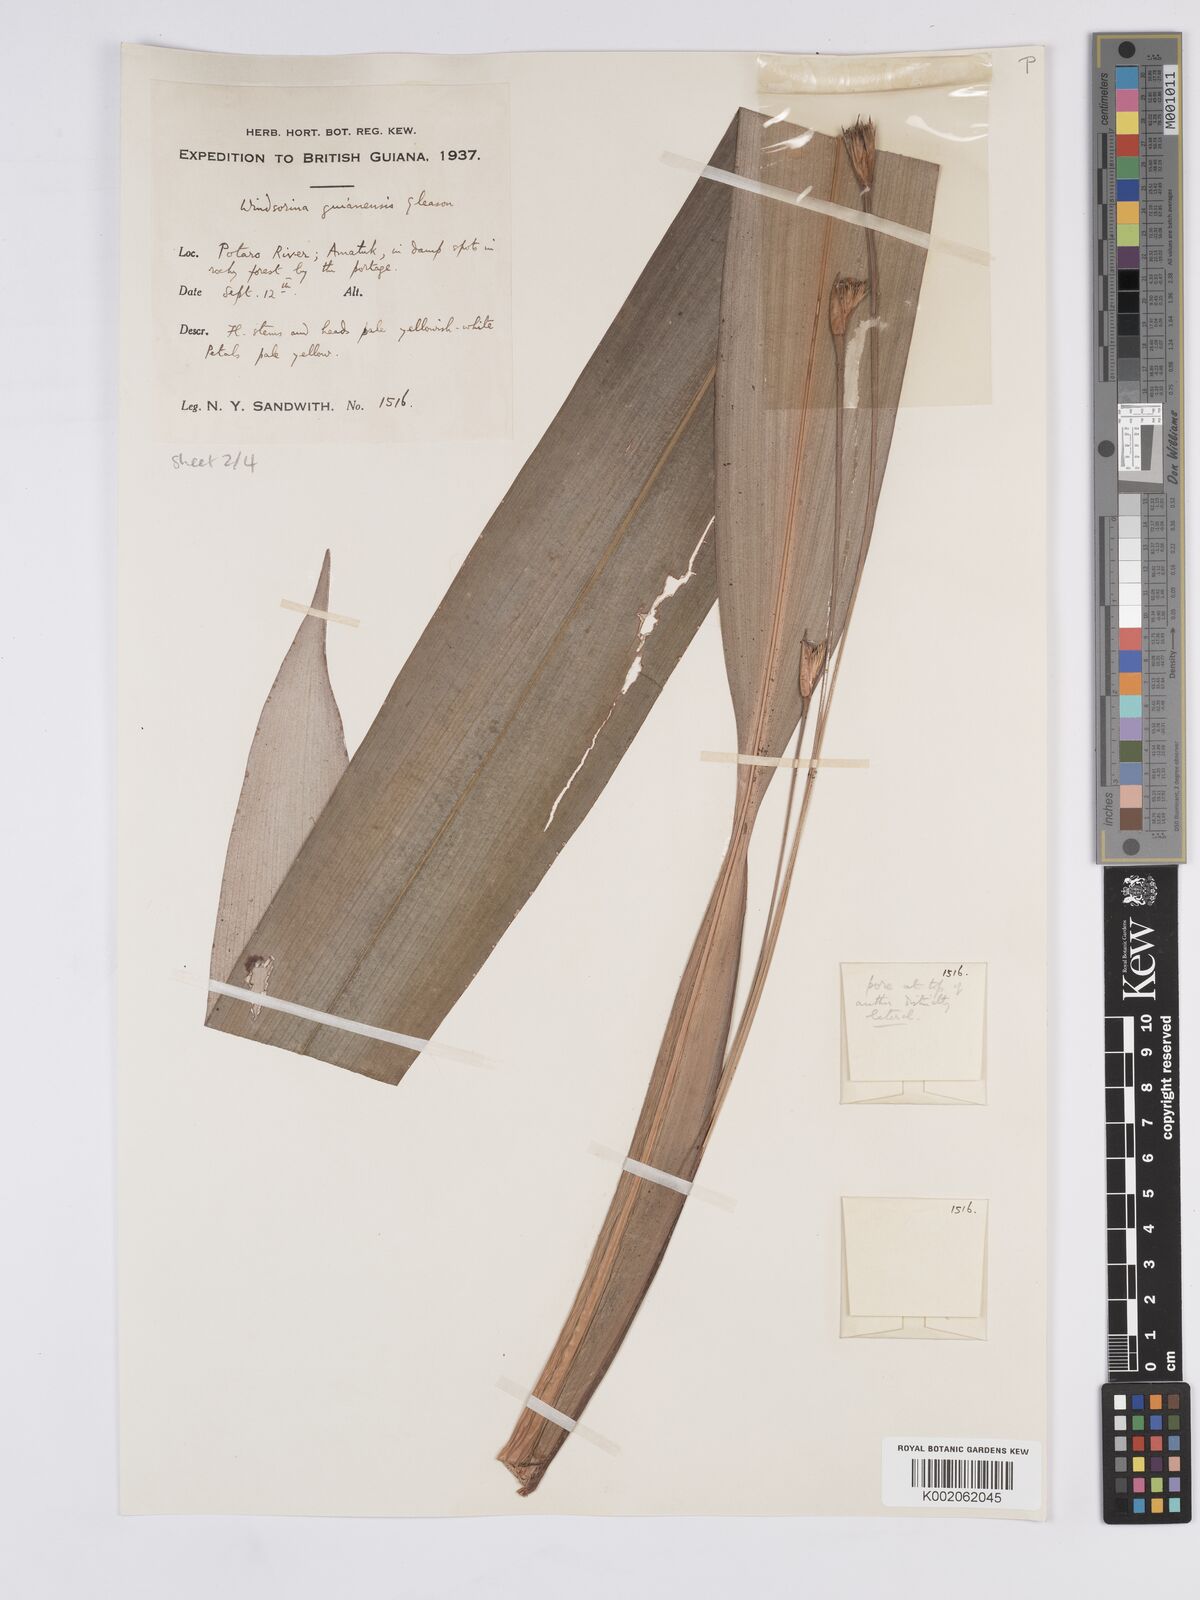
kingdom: Plantae
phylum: Tracheophyta
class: Liliopsida
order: Poales
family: Rapateaceae
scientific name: Rapateaceae
